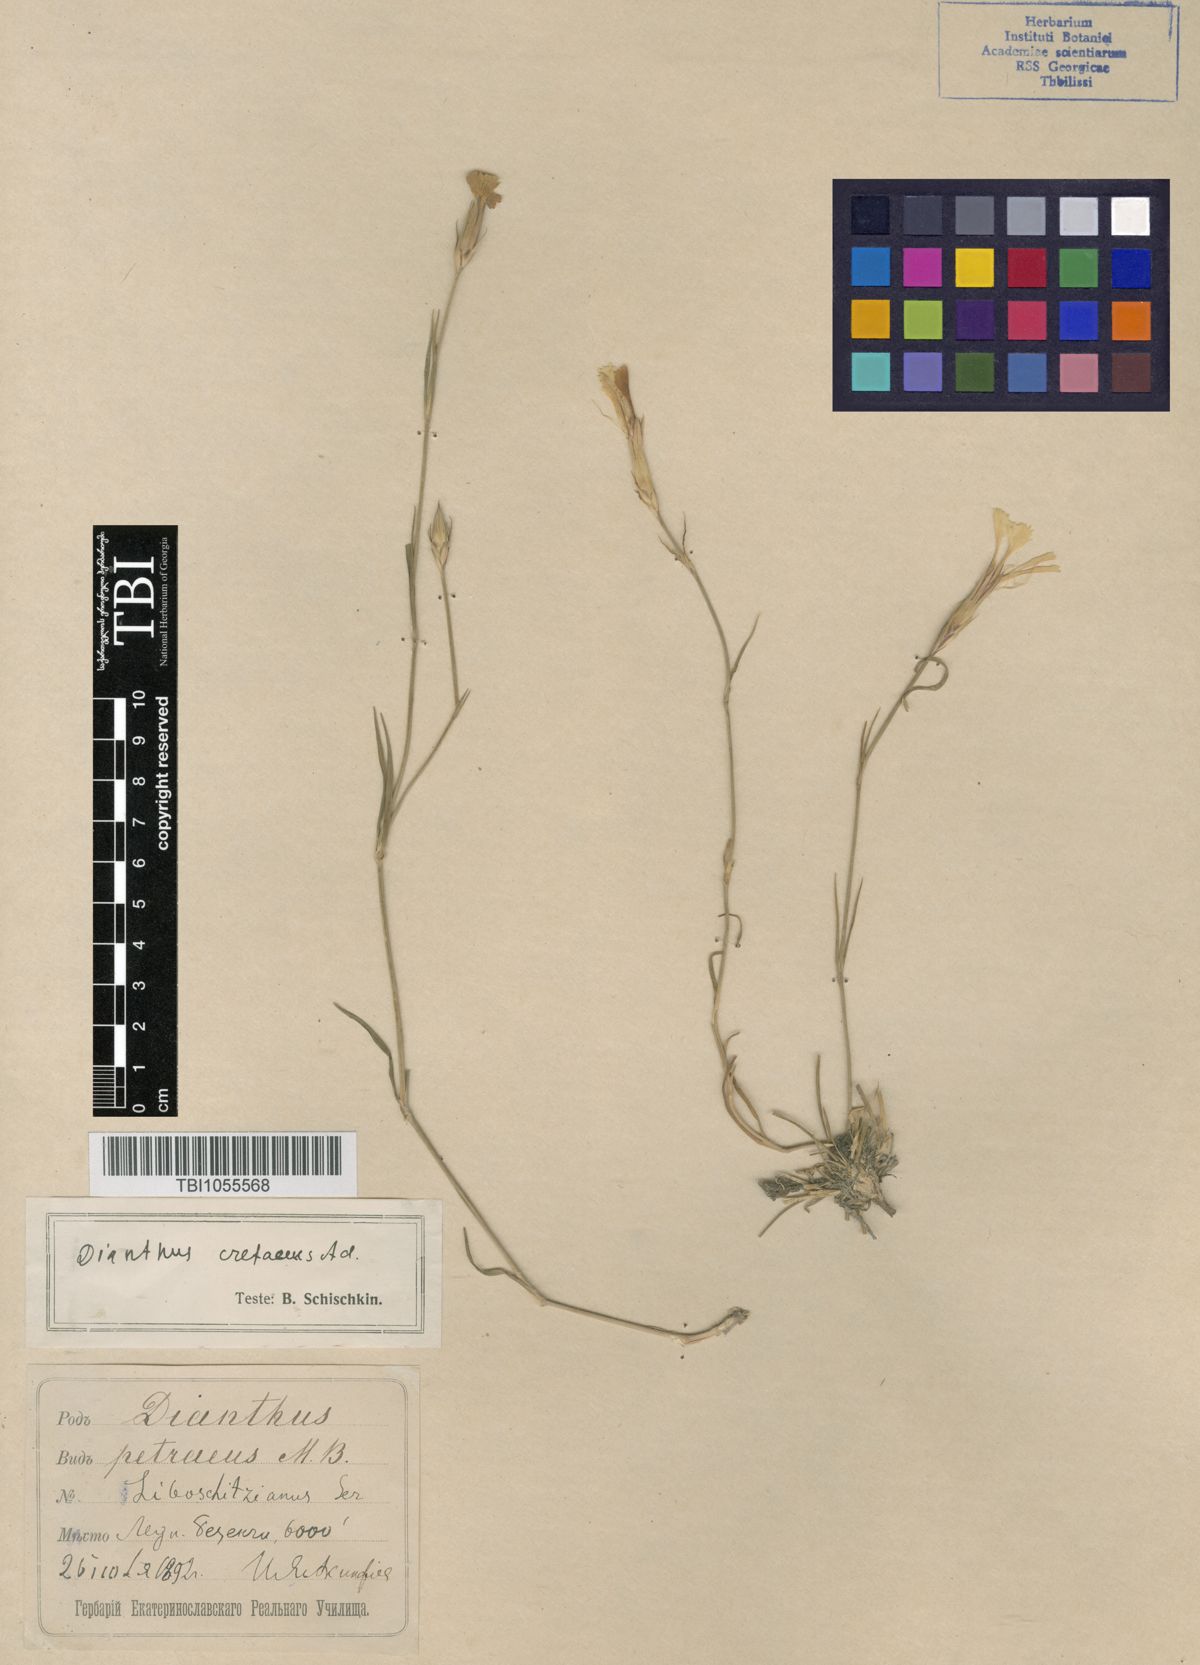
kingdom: Plantae
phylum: Tracheophyta
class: Magnoliopsida
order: Caryophyllales
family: Caryophyllaceae
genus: Dianthus
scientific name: Dianthus
